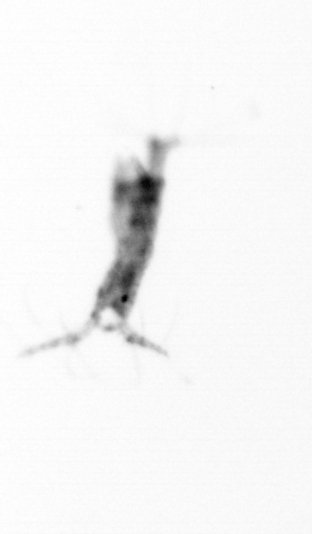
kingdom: Animalia
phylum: Arthropoda
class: Copepoda
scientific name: Copepoda
